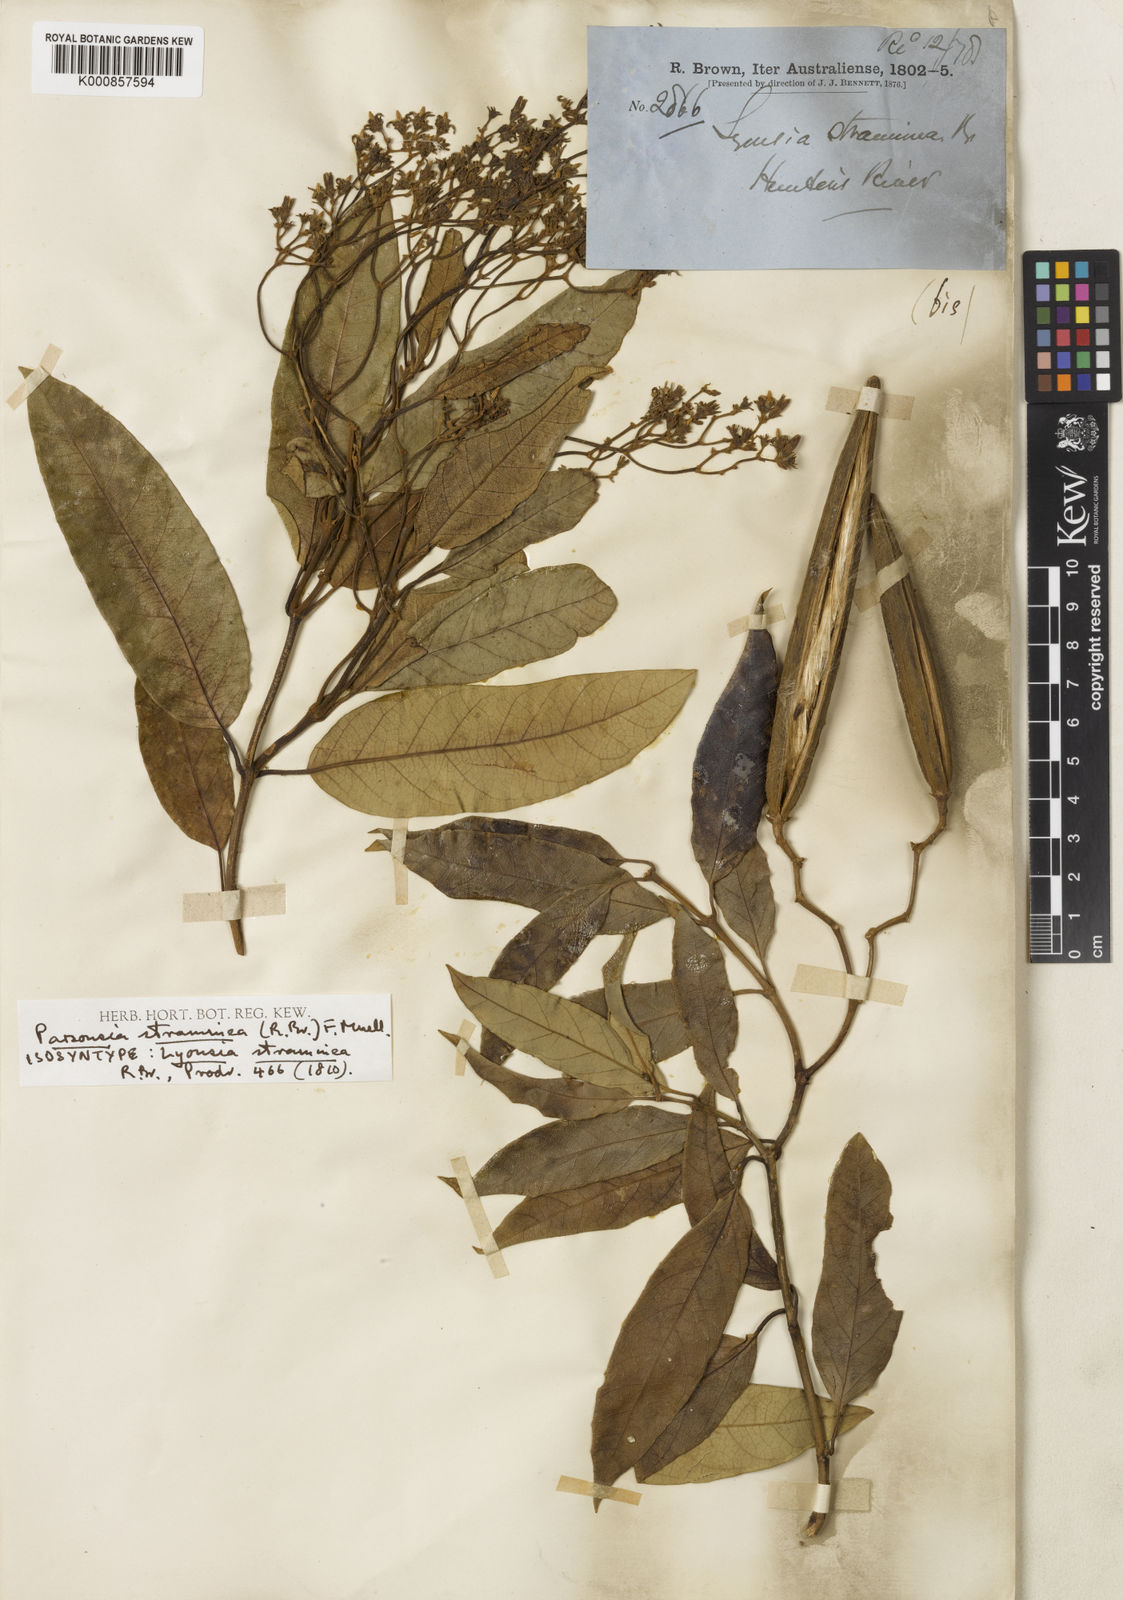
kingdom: Plantae
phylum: Tracheophyta
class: Magnoliopsida
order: Gentianales
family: Apocynaceae
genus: Parsonsia
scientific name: Parsonsia straminea
